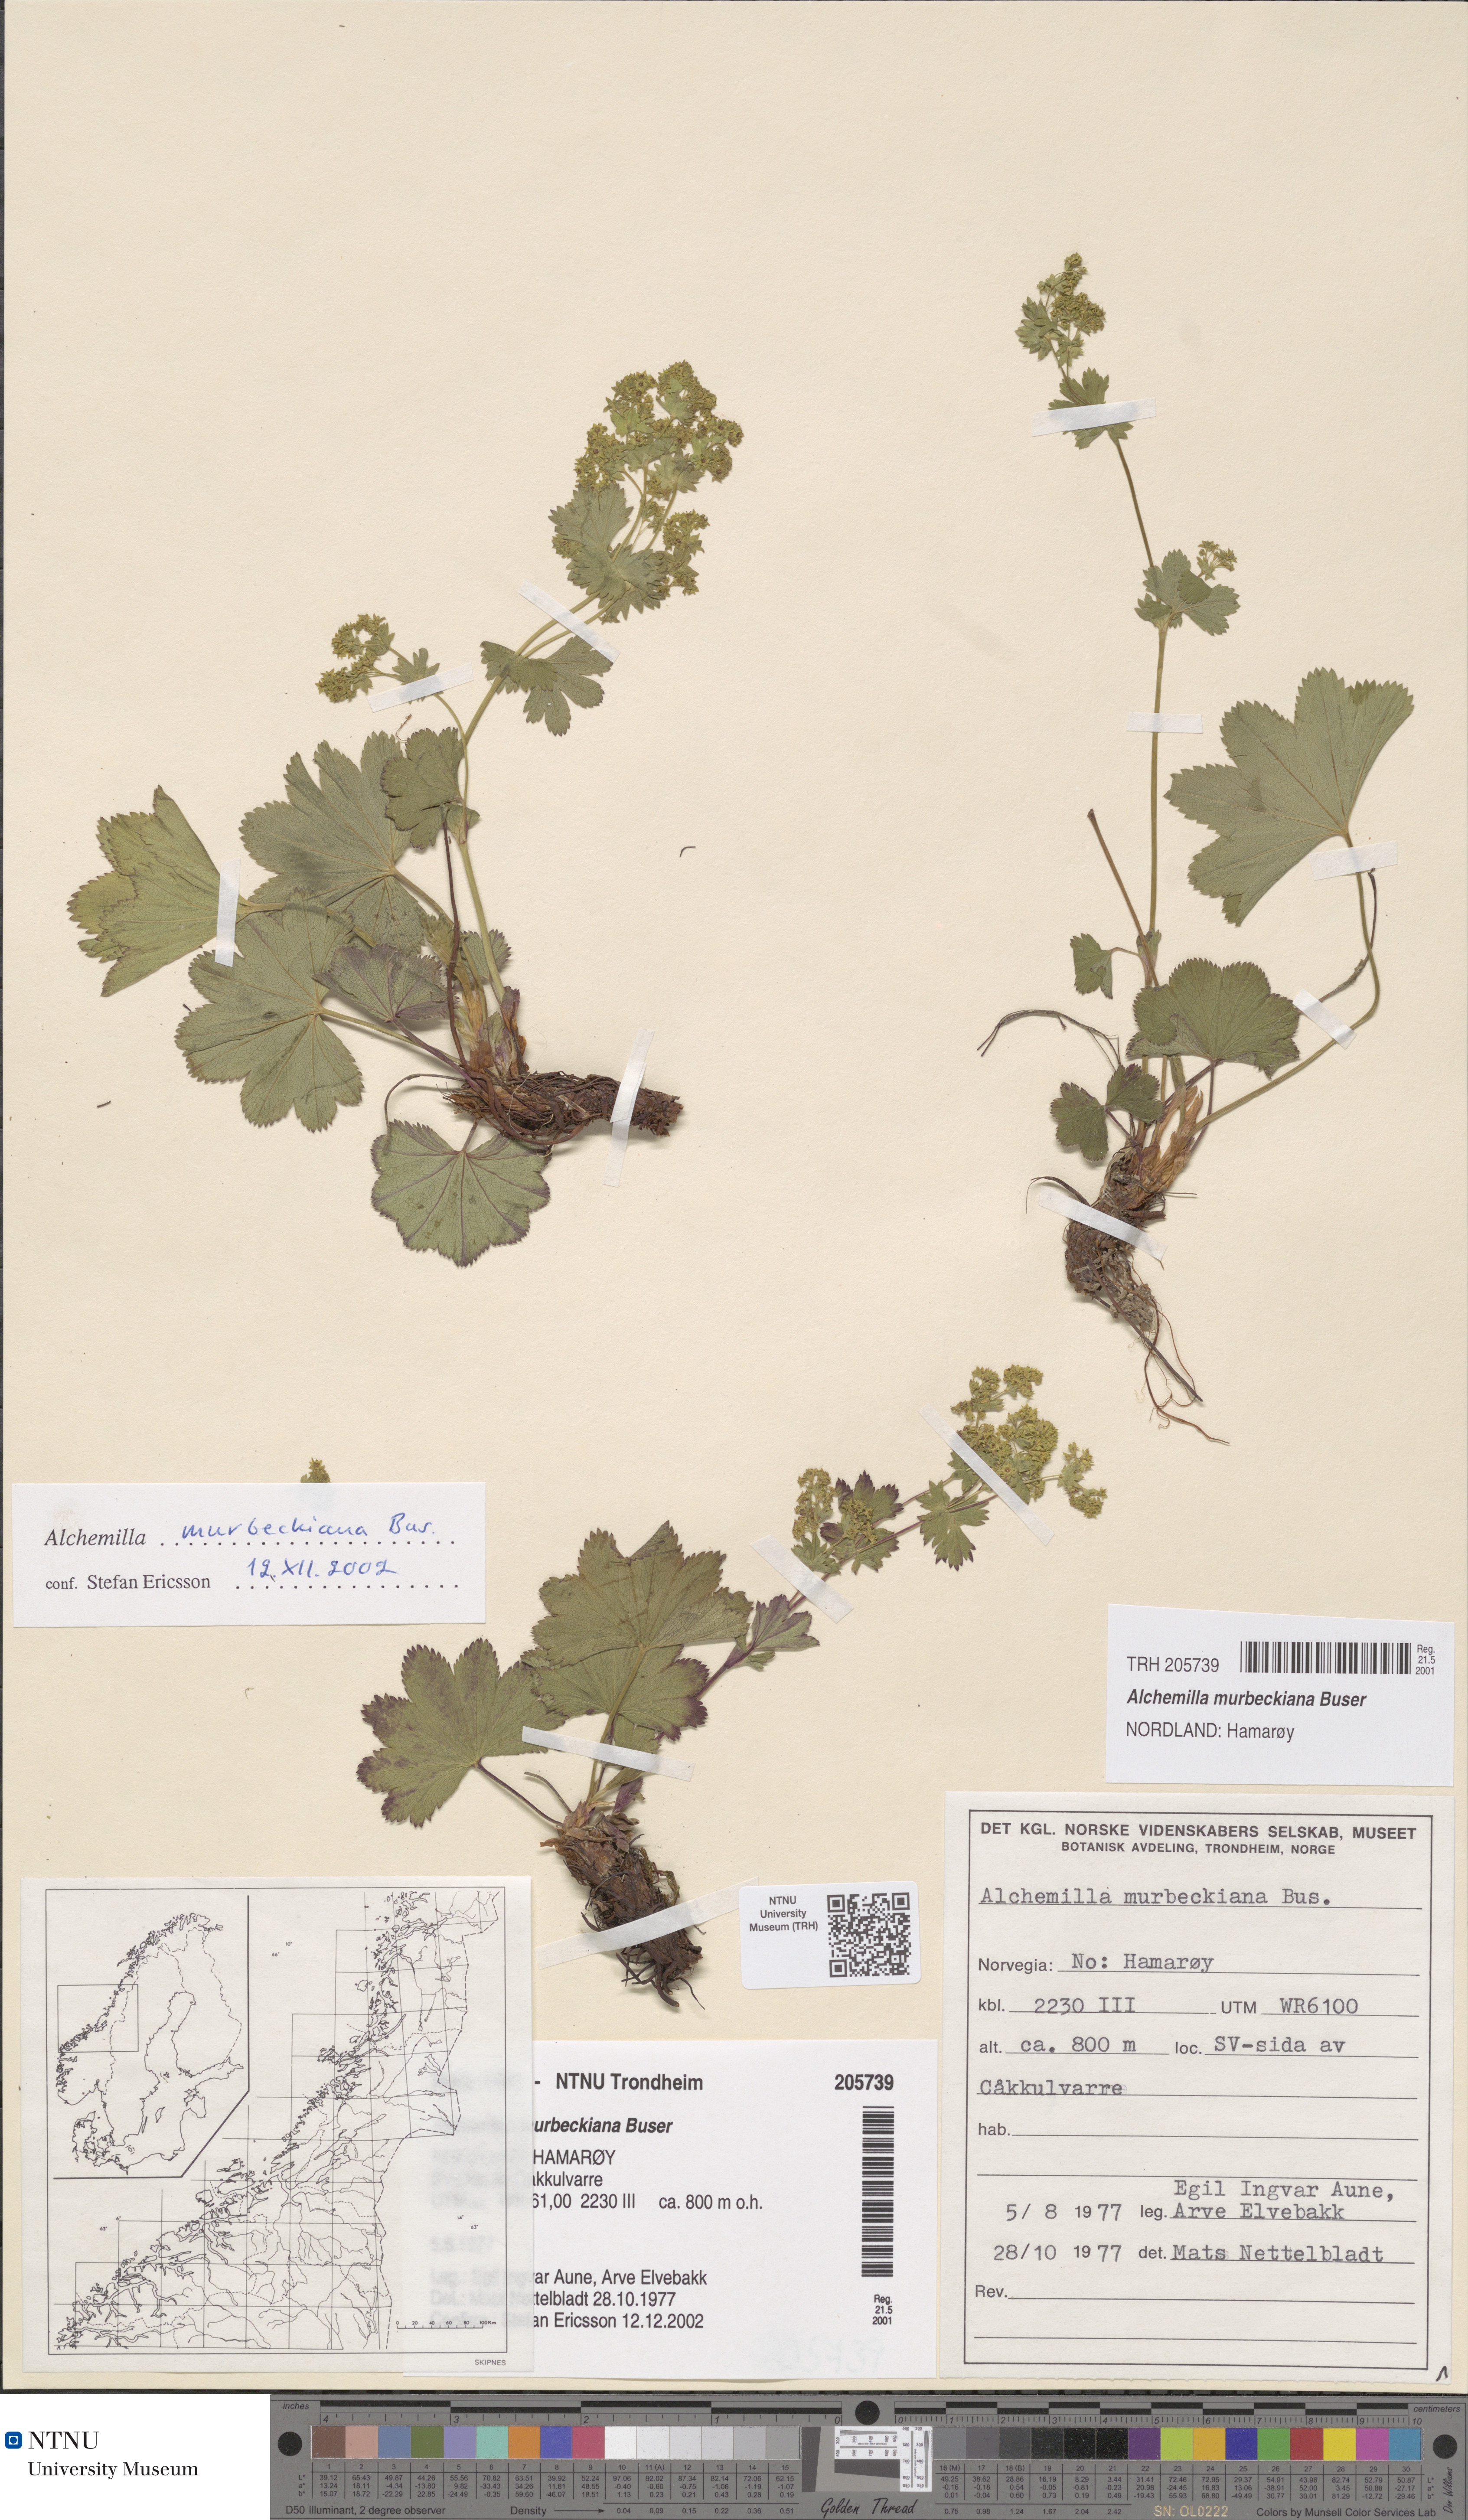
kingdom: Plantae
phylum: Tracheophyta
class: Magnoliopsida
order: Rosales
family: Rosaceae
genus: Alchemilla
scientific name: Alchemilla murbeckiana
